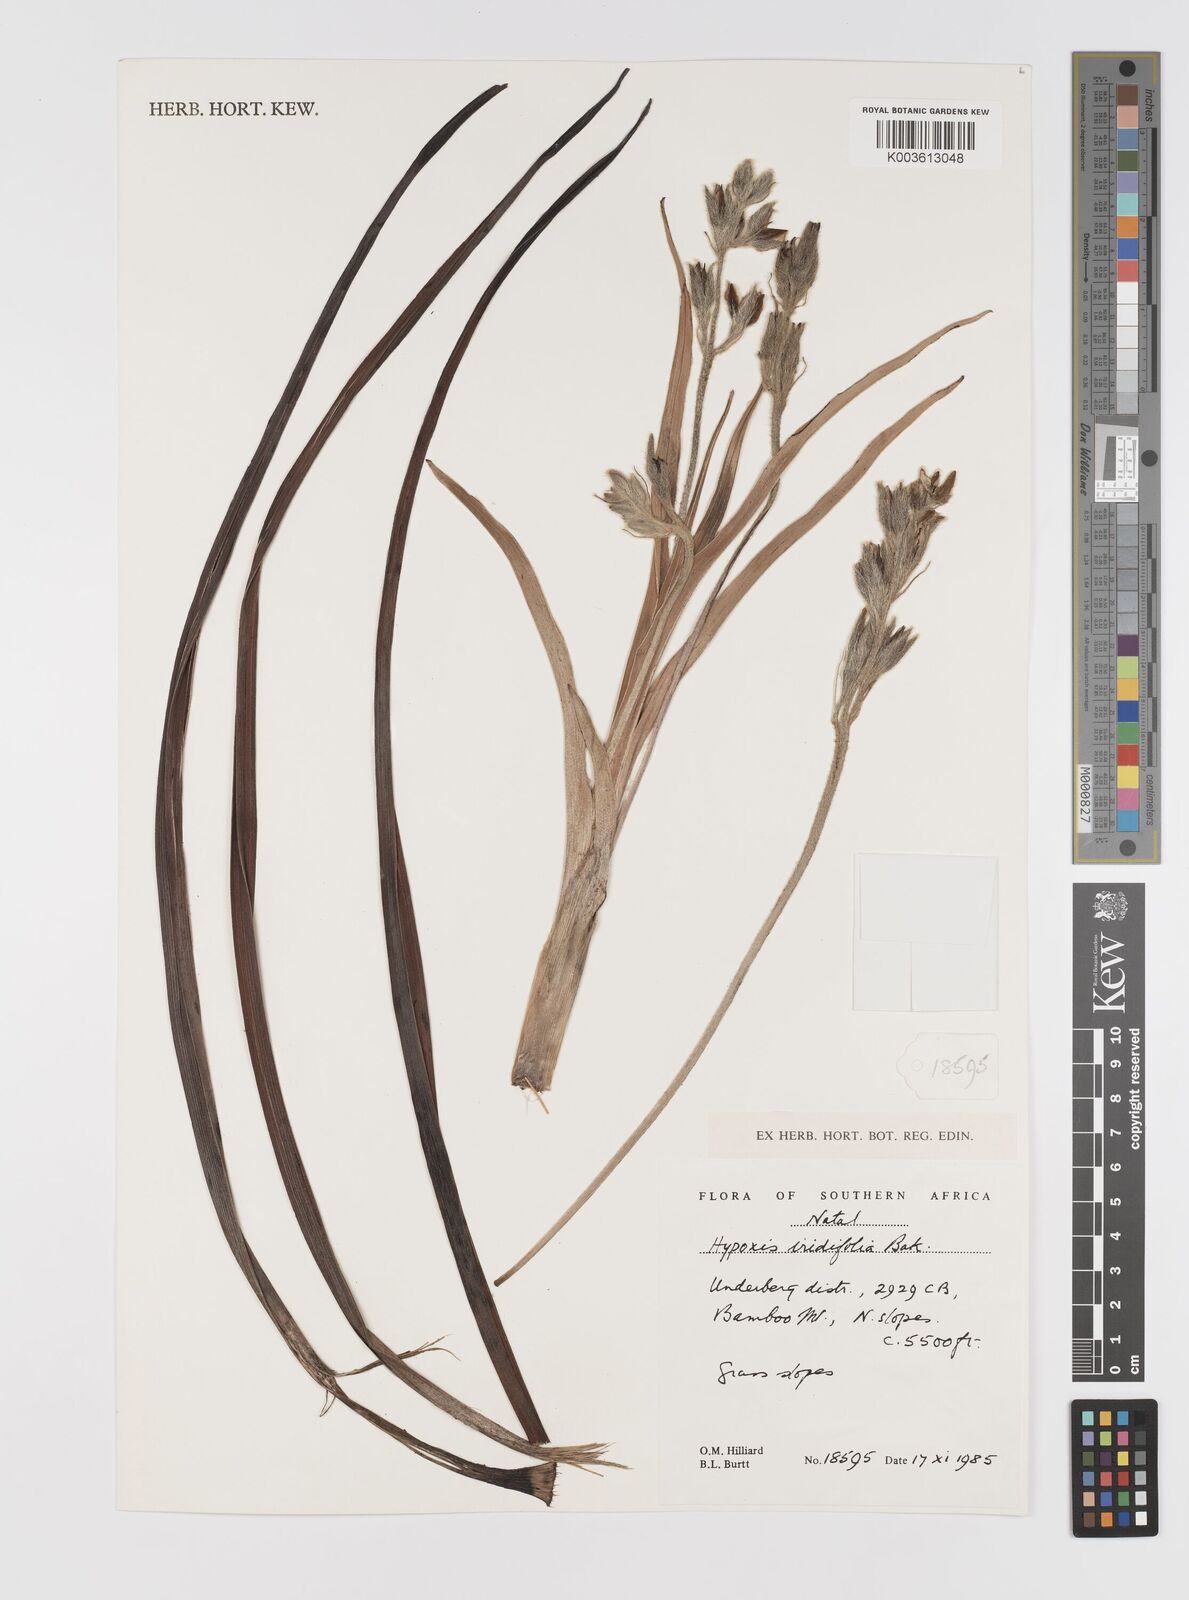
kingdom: Plantae
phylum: Tracheophyta
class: Liliopsida
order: Asparagales
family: Hypoxidaceae
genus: Hypoxis
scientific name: Hypoxis obtusa
